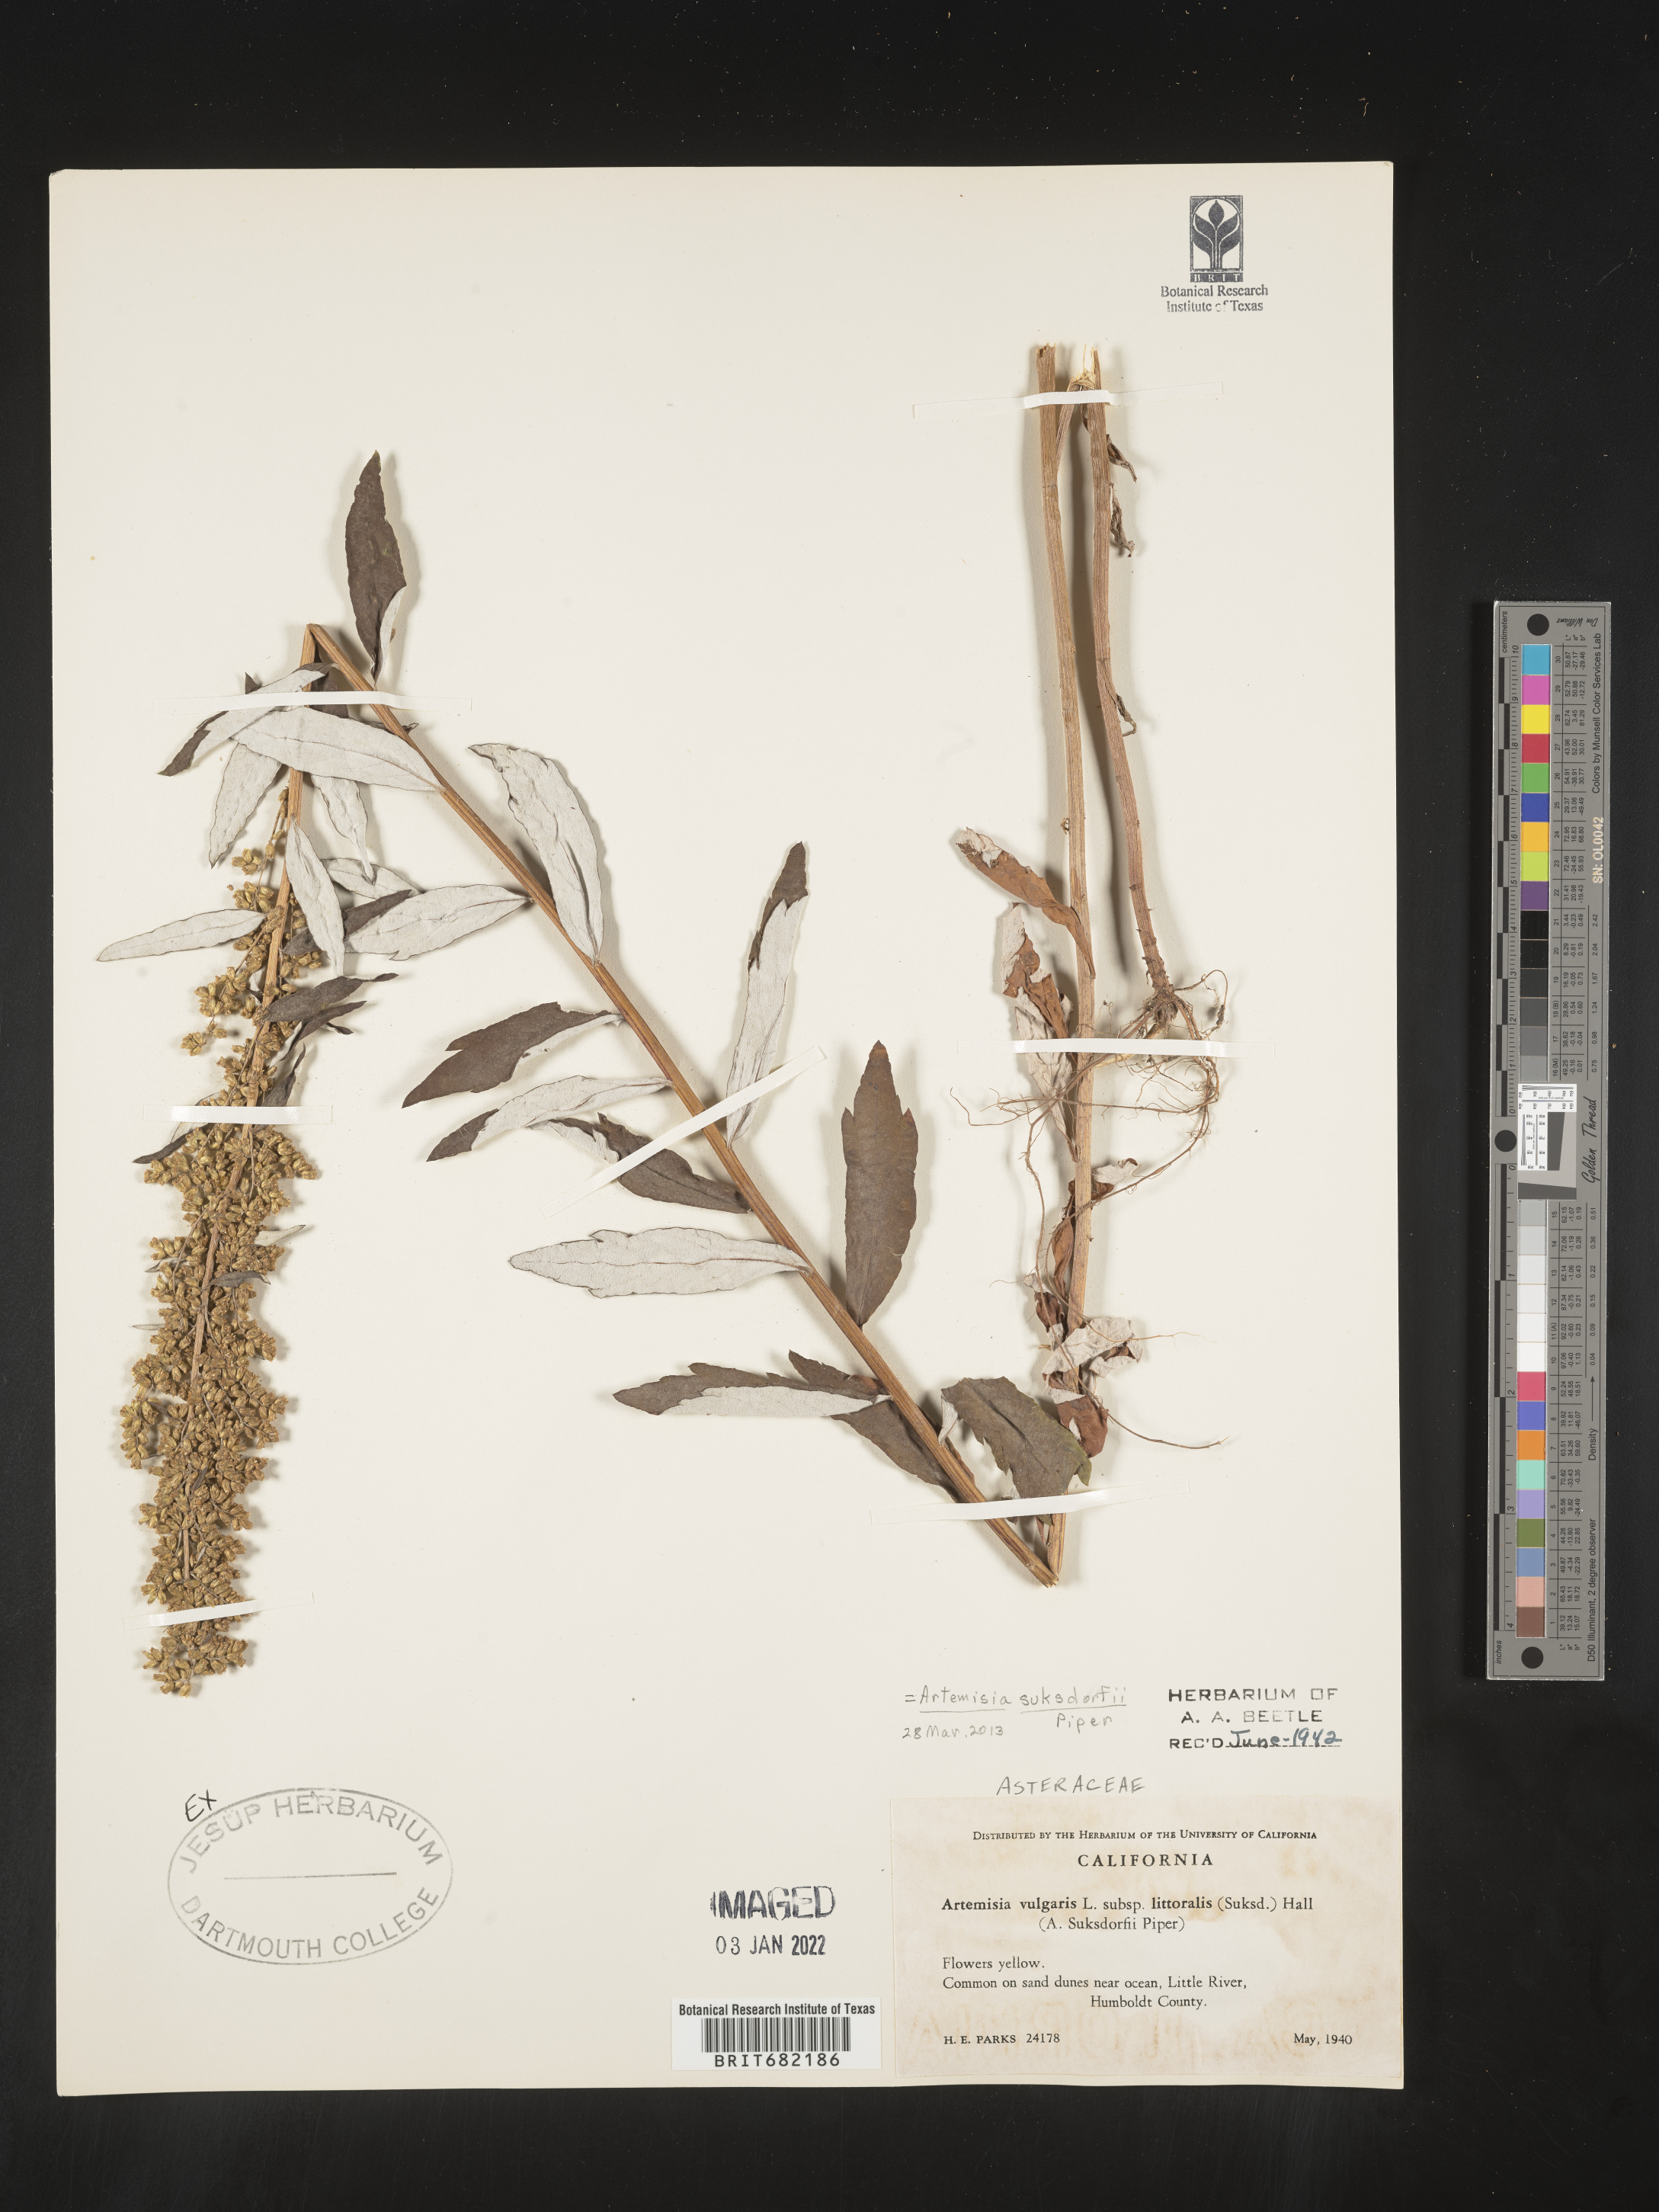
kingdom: Plantae
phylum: Tracheophyta
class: Magnoliopsida
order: Asterales
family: Asteraceae
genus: Artemisia
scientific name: Artemisia suksdorfii
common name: Suksdorf sagewort
